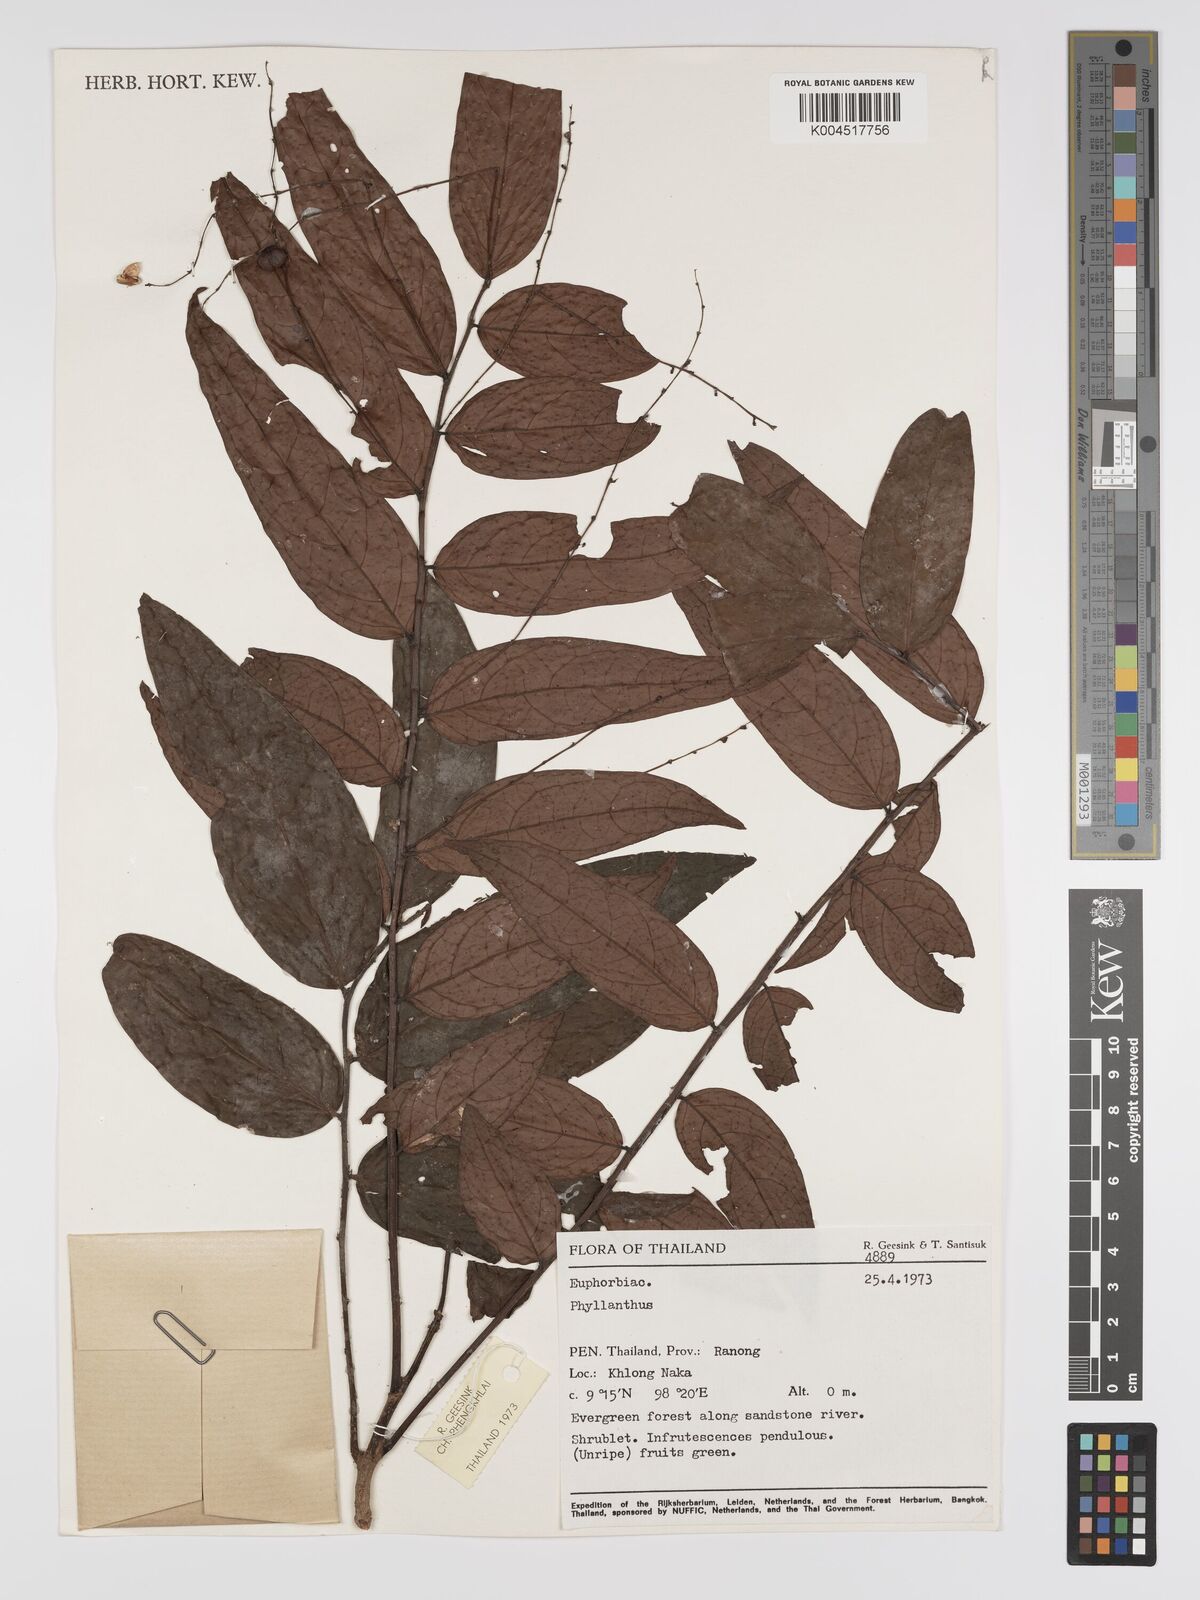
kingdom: Plantae
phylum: Tracheophyta
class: Magnoliopsida
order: Malpighiales
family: Phyllanthaceae
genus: Phyllanthus
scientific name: Phyllanthus pachyphyllus
